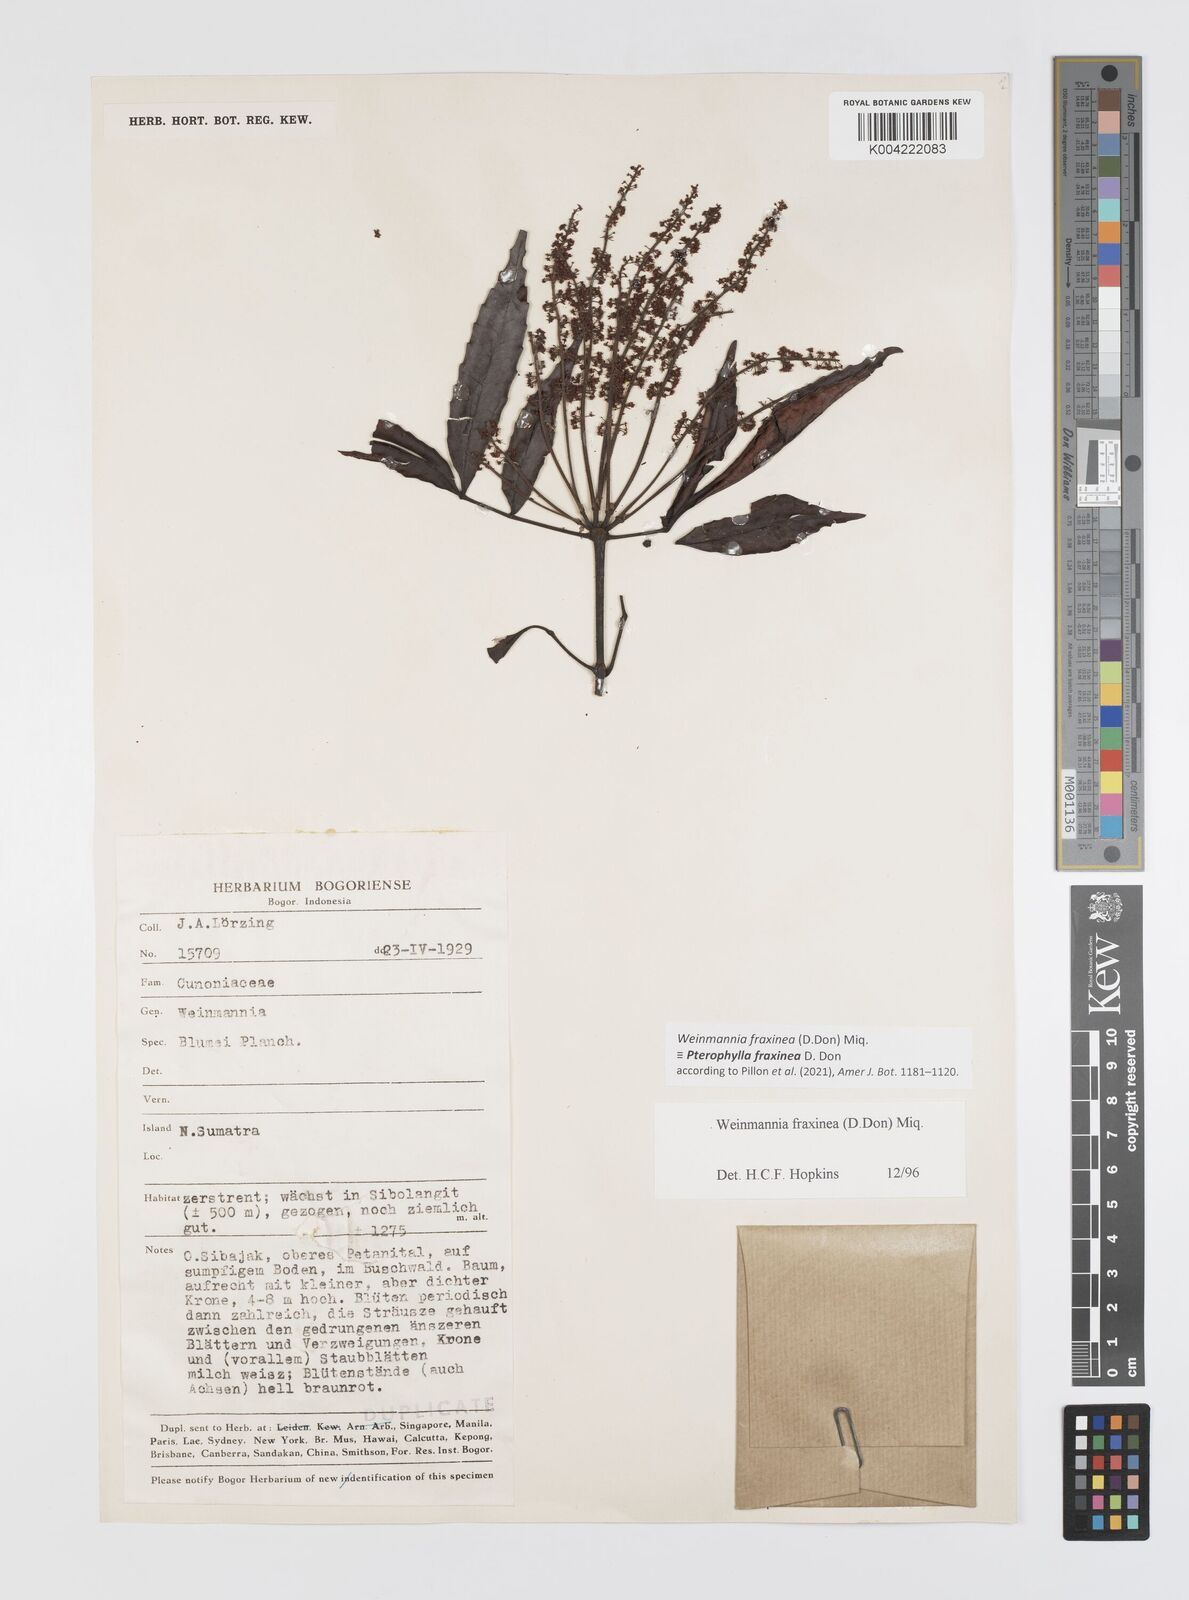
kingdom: Plantae
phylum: Tracheophyta
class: Magnoliopsida
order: Oxalidales
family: Cunoniaceae
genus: Pterophylla
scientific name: Pterophylla fraxinea
